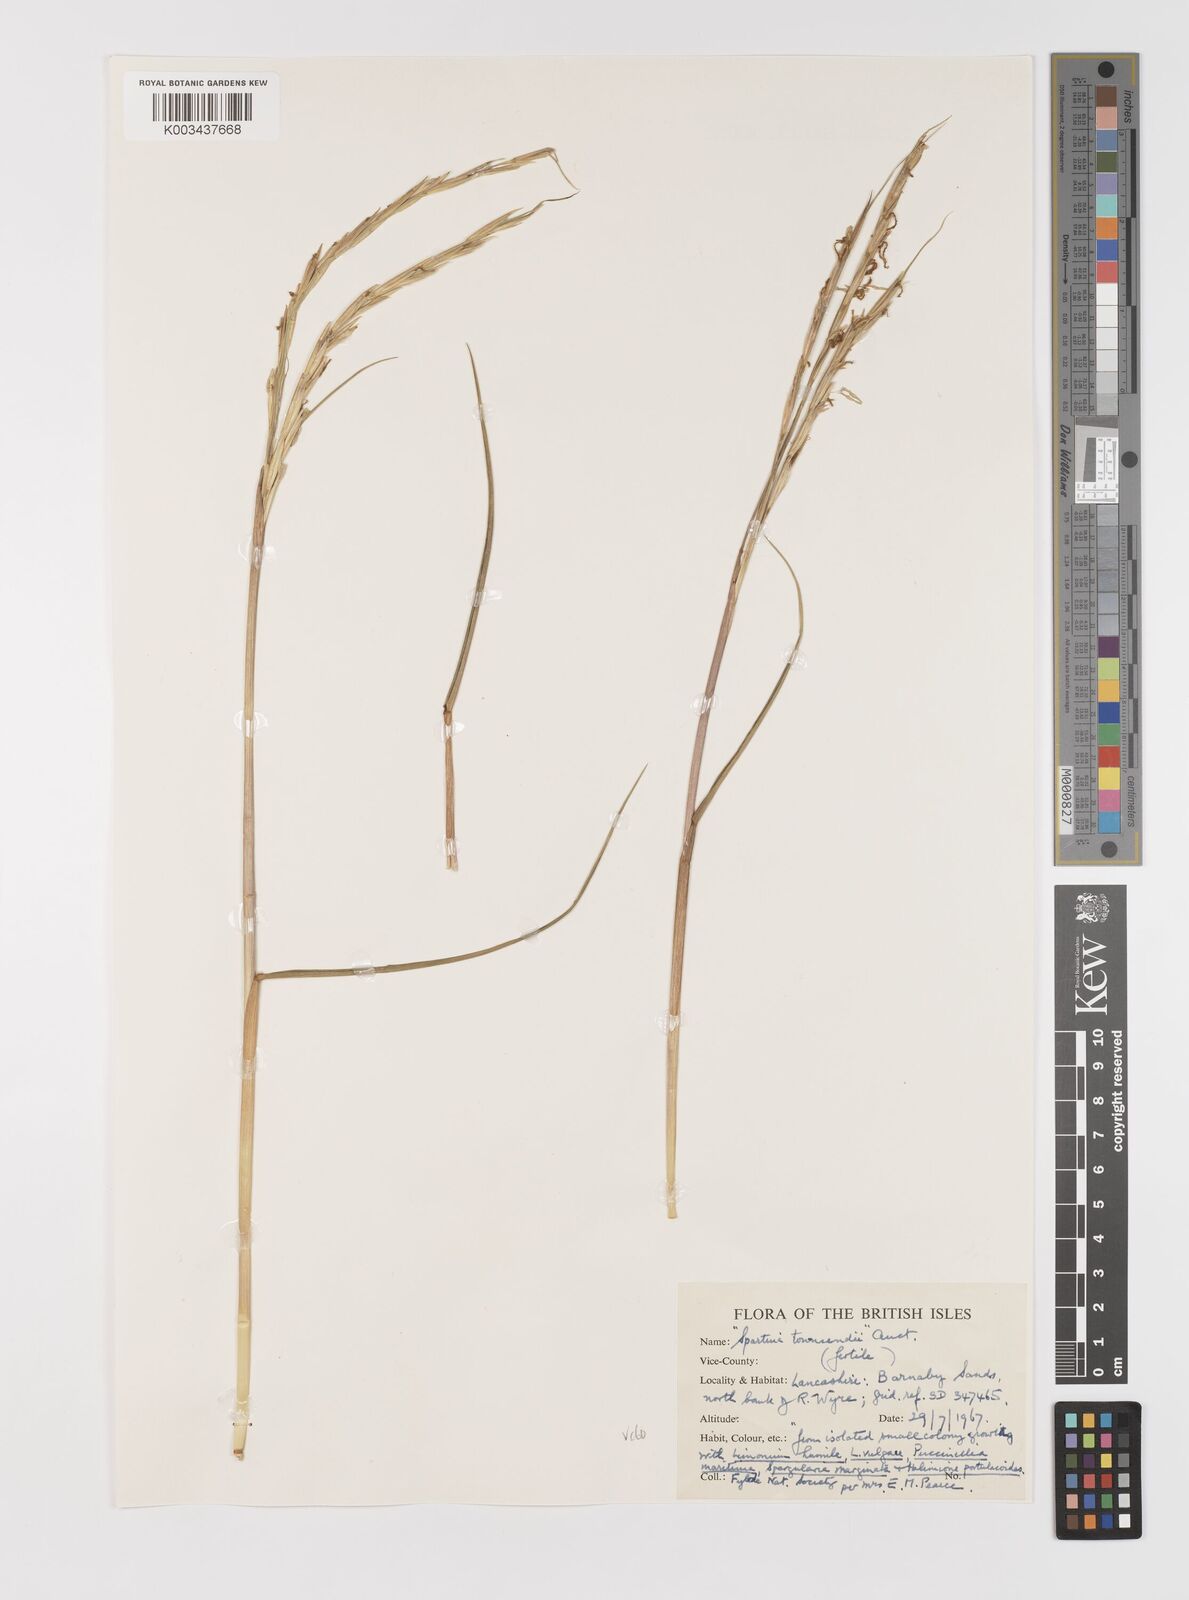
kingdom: Plantae
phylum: Tracheophyta
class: Liliopsida
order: Poales
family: Poaceae
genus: Sporobolus
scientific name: Sporobolus anglicus
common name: English cordgrass
